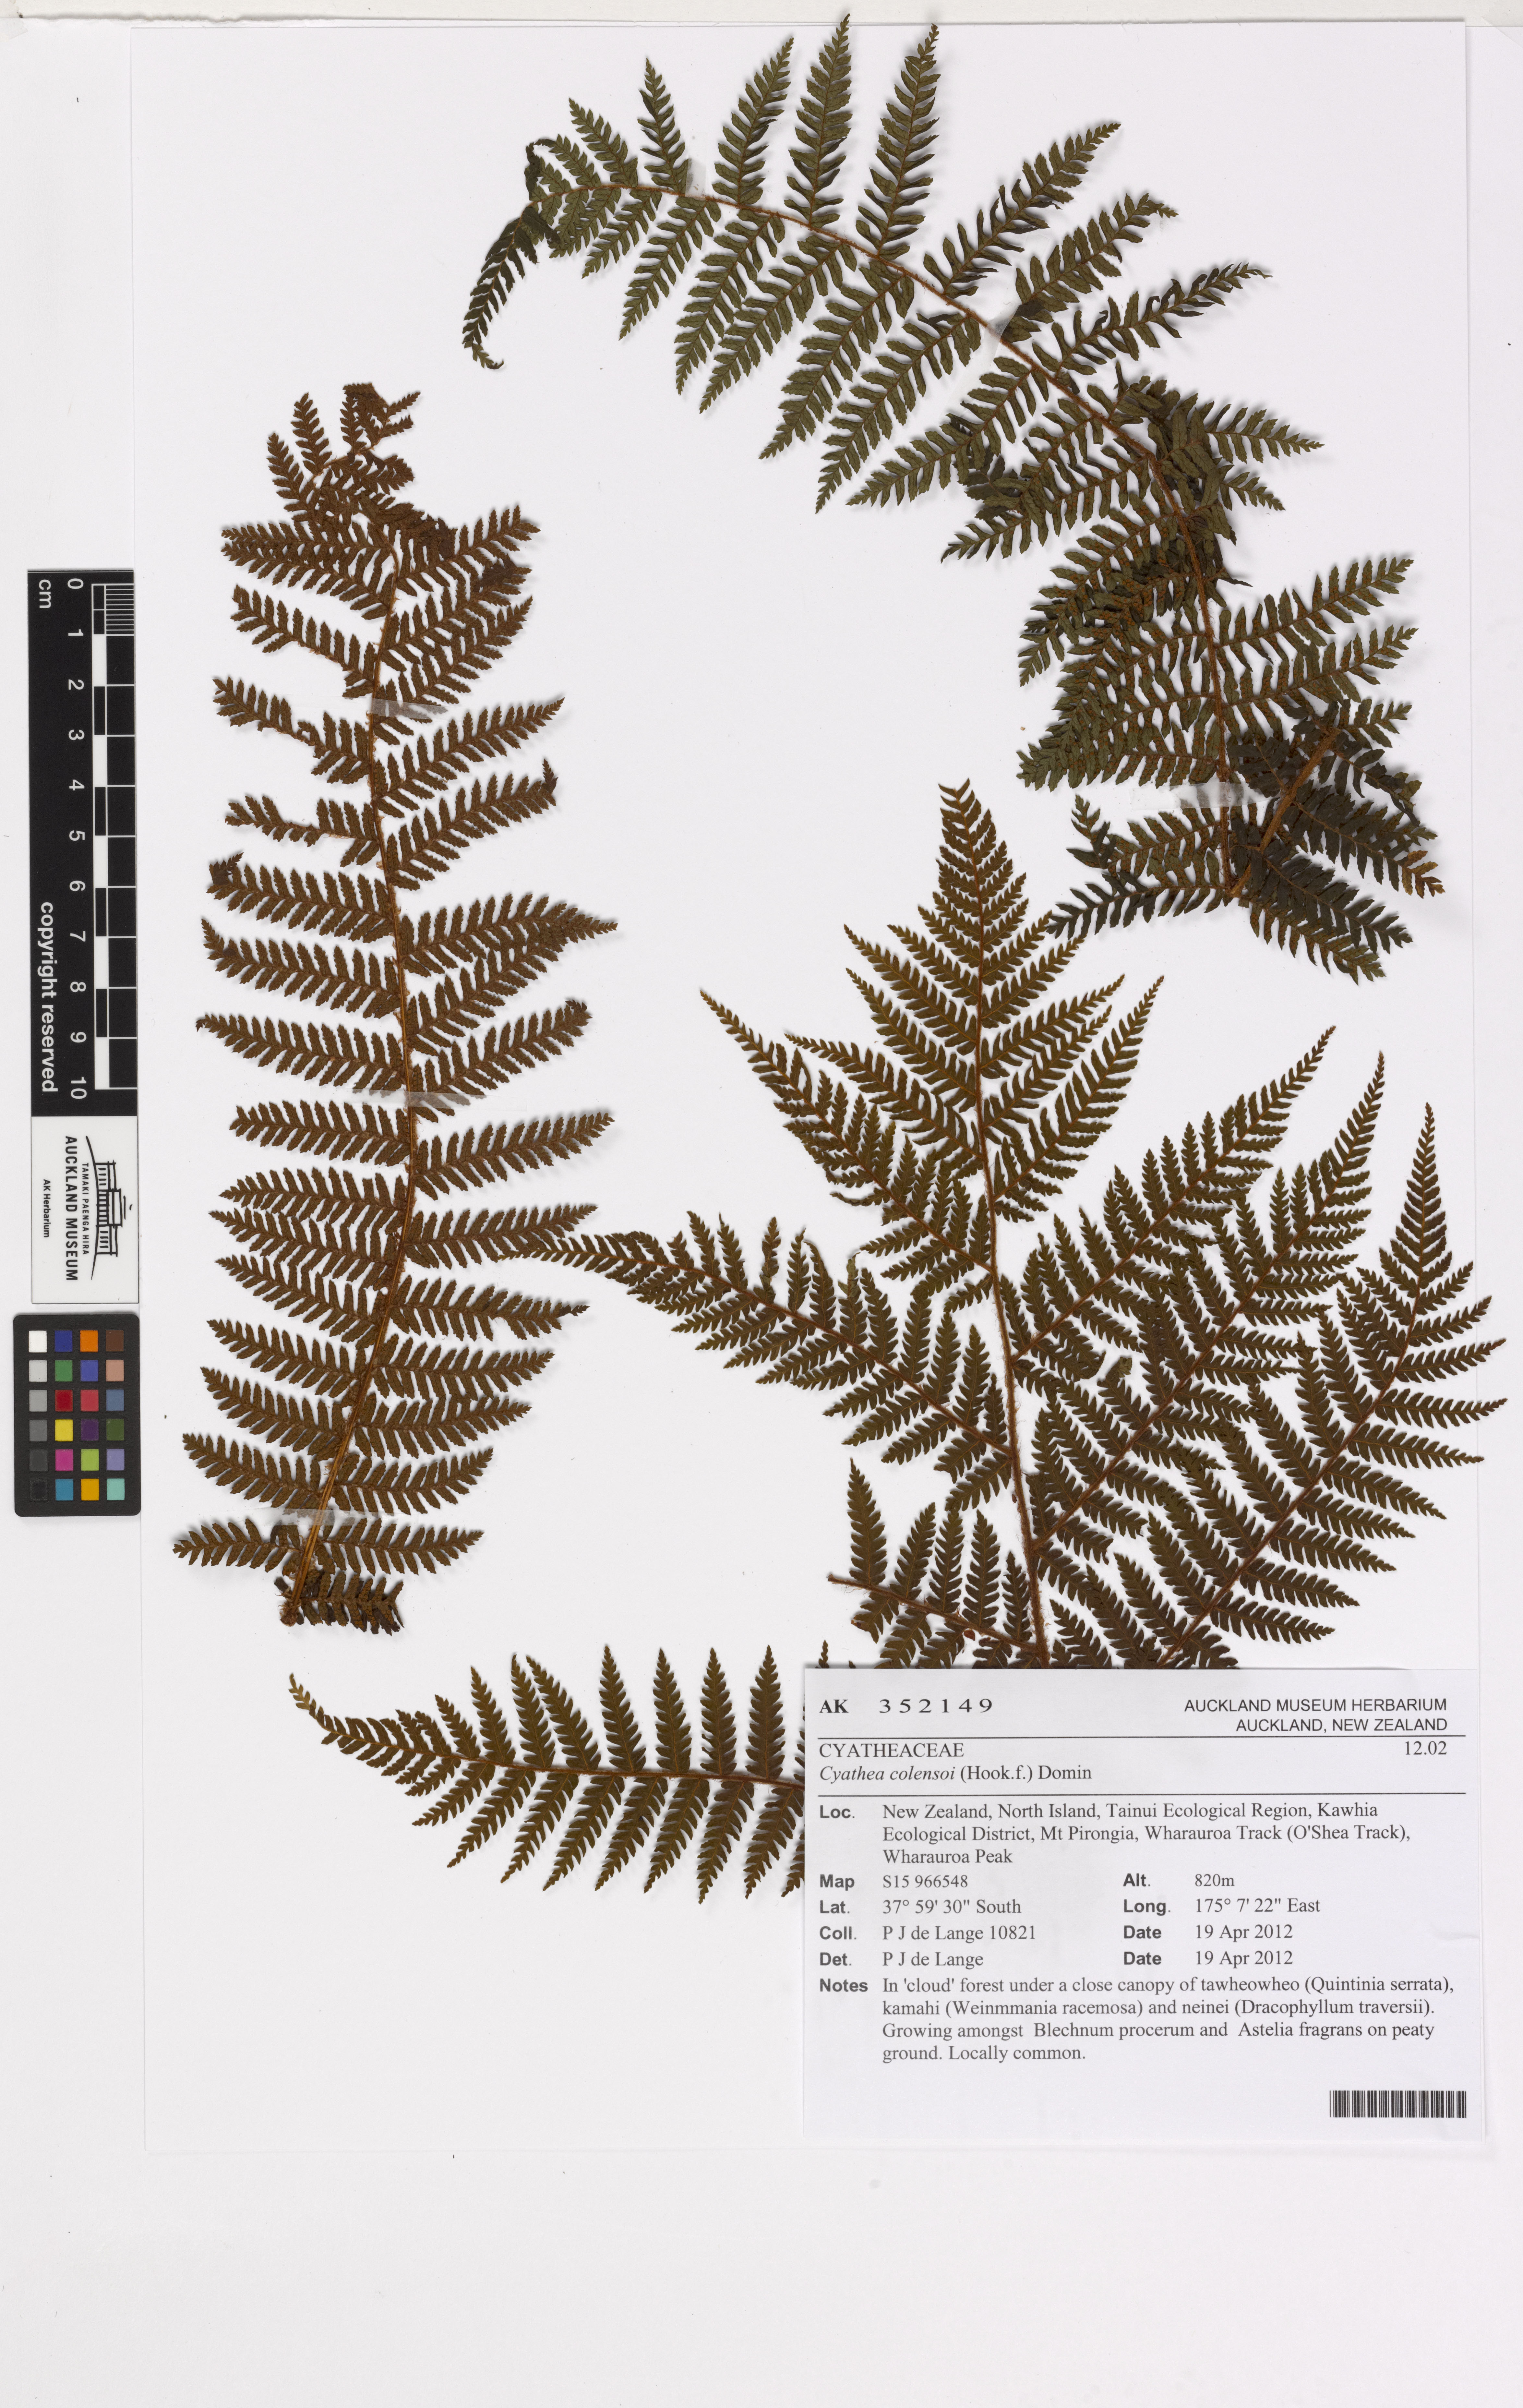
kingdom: Plantae
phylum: Tracheophyta
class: Polypodiopsida
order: Cyatheales
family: Cyatheaceae
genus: Alsophila
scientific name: Alsophila colensoi
